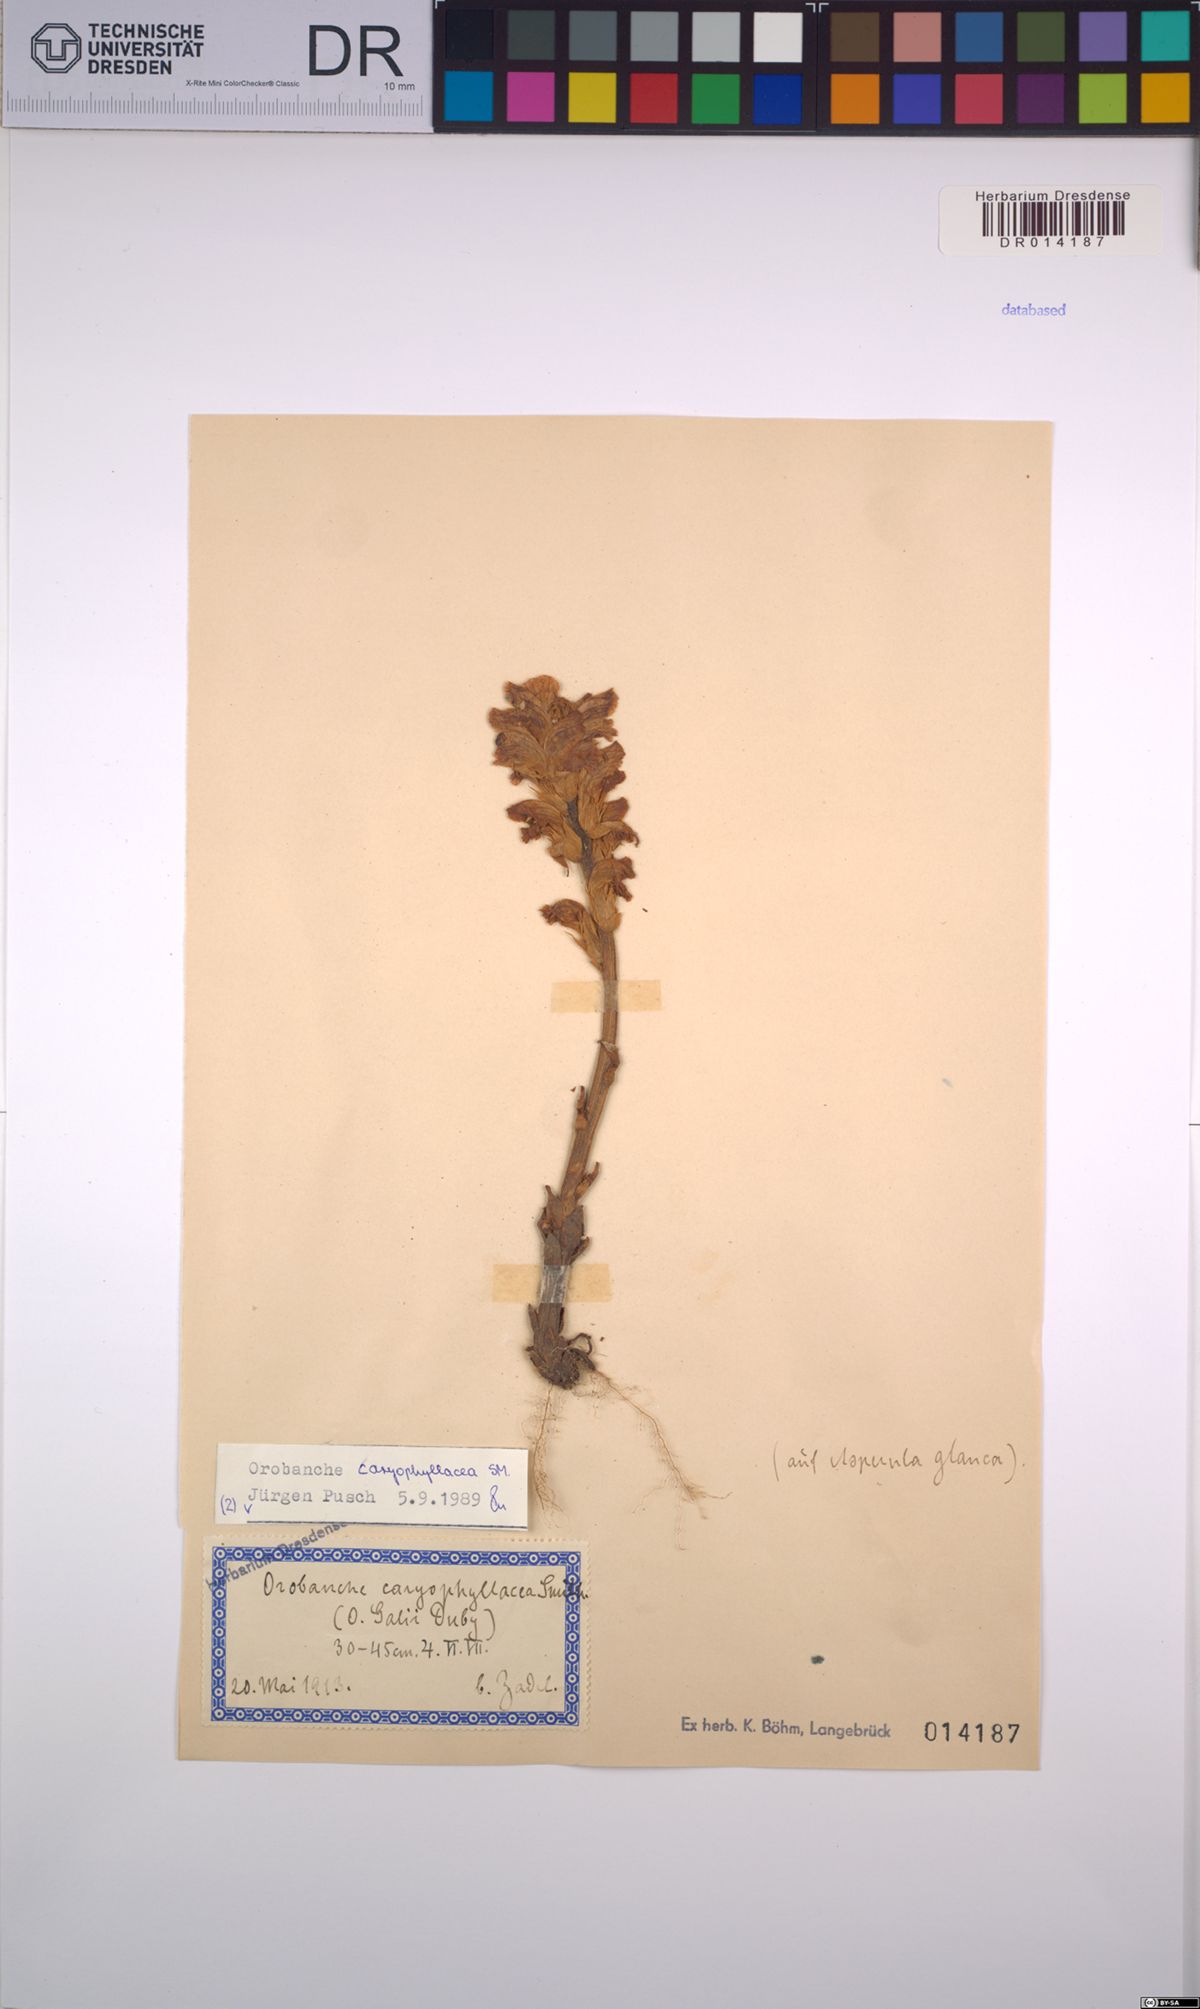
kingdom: Plantae
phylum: Tracheophyta
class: Magnoliopsida
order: Lamiales
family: Orobanchaceae
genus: Orobanche
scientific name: Orobanche caryophyllacea
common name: Bedstraw broomrape
